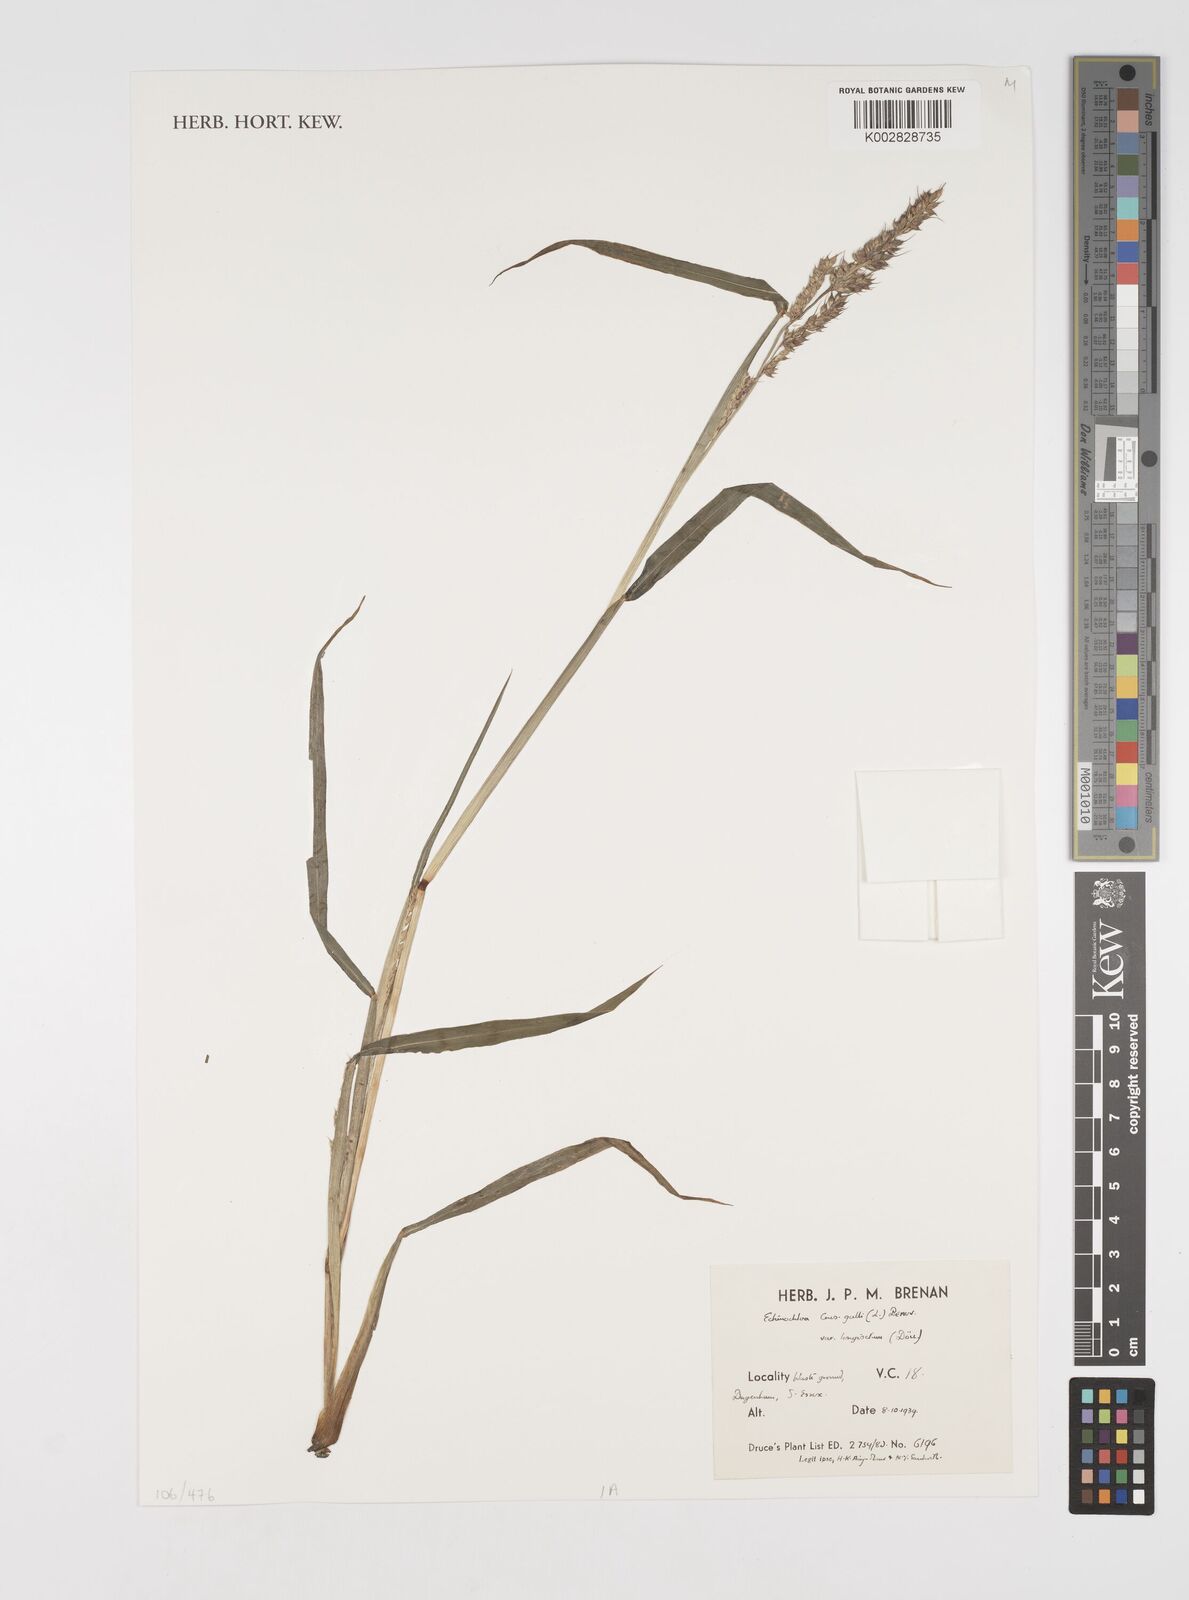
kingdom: Plantae
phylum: Tracheophyta
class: Liliopsida
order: Poales
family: Poaceae
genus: Echinochloa
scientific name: Echinochloa crus-galli
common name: Cockspur
